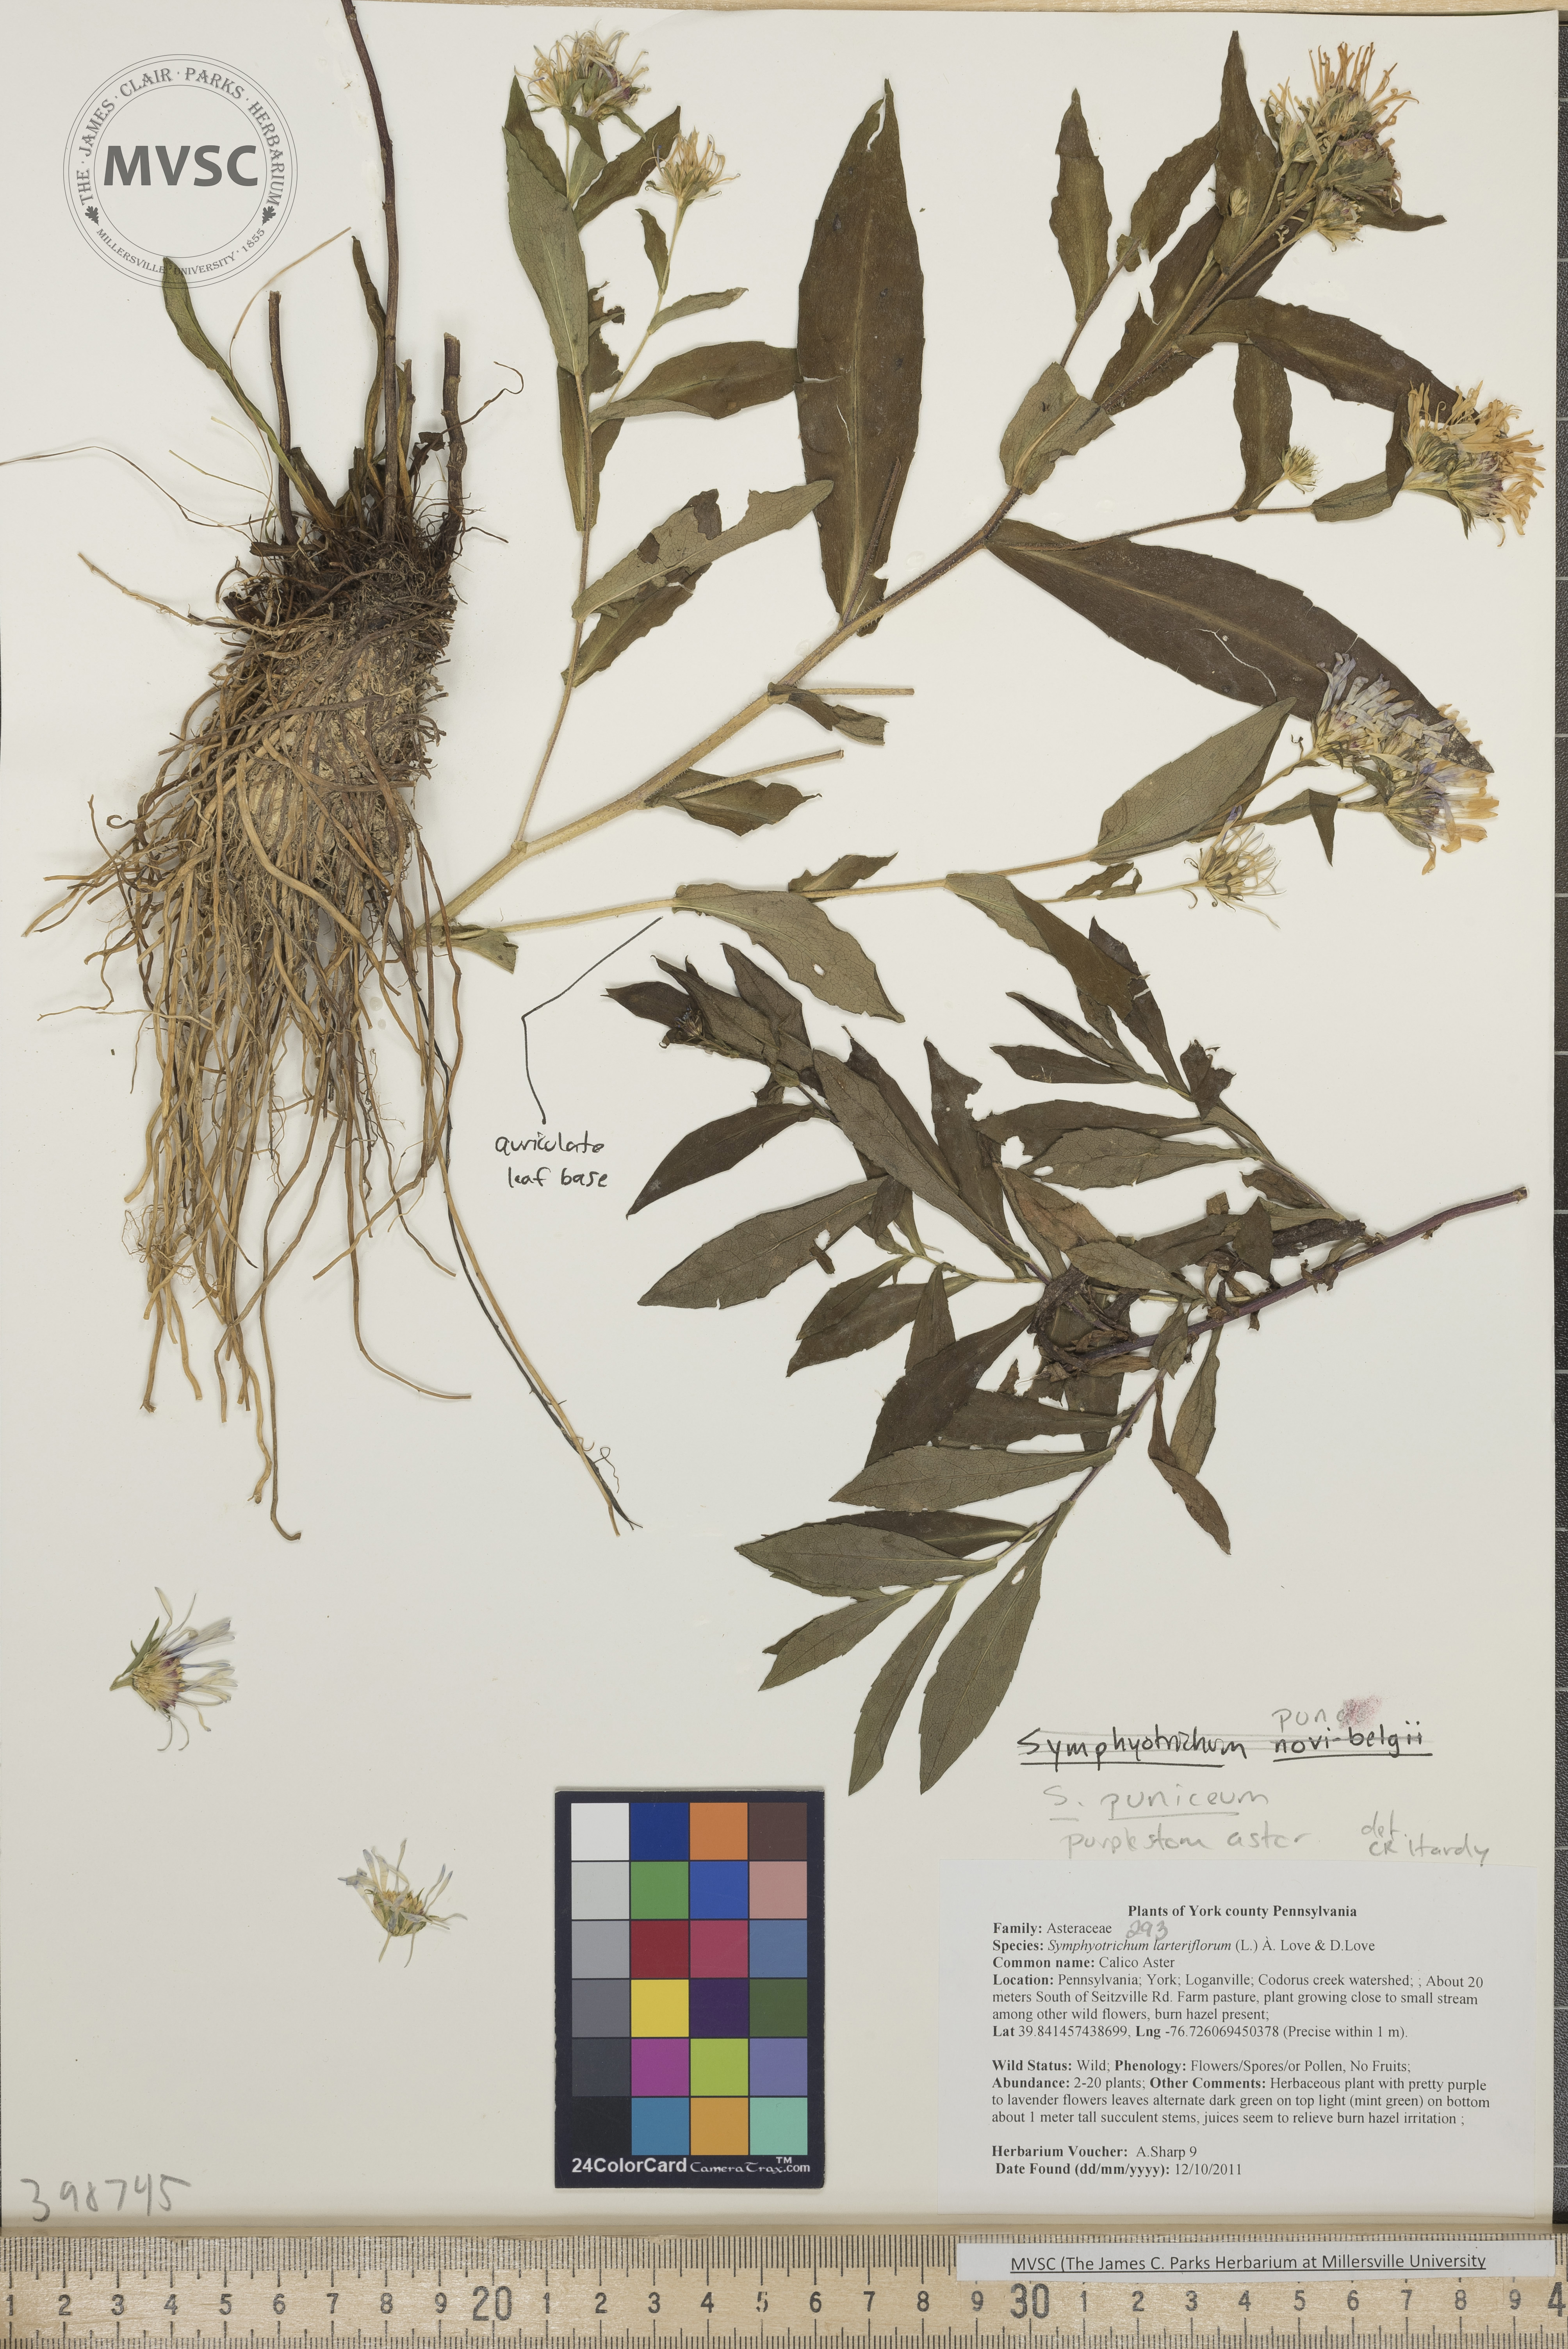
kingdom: Plantae
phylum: Tracheophyta
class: Magnoliopsida
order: Asterales
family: Asteraceae
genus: Symphyotrichum
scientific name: Symphyotrichum puniceum
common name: Purplestem aster
